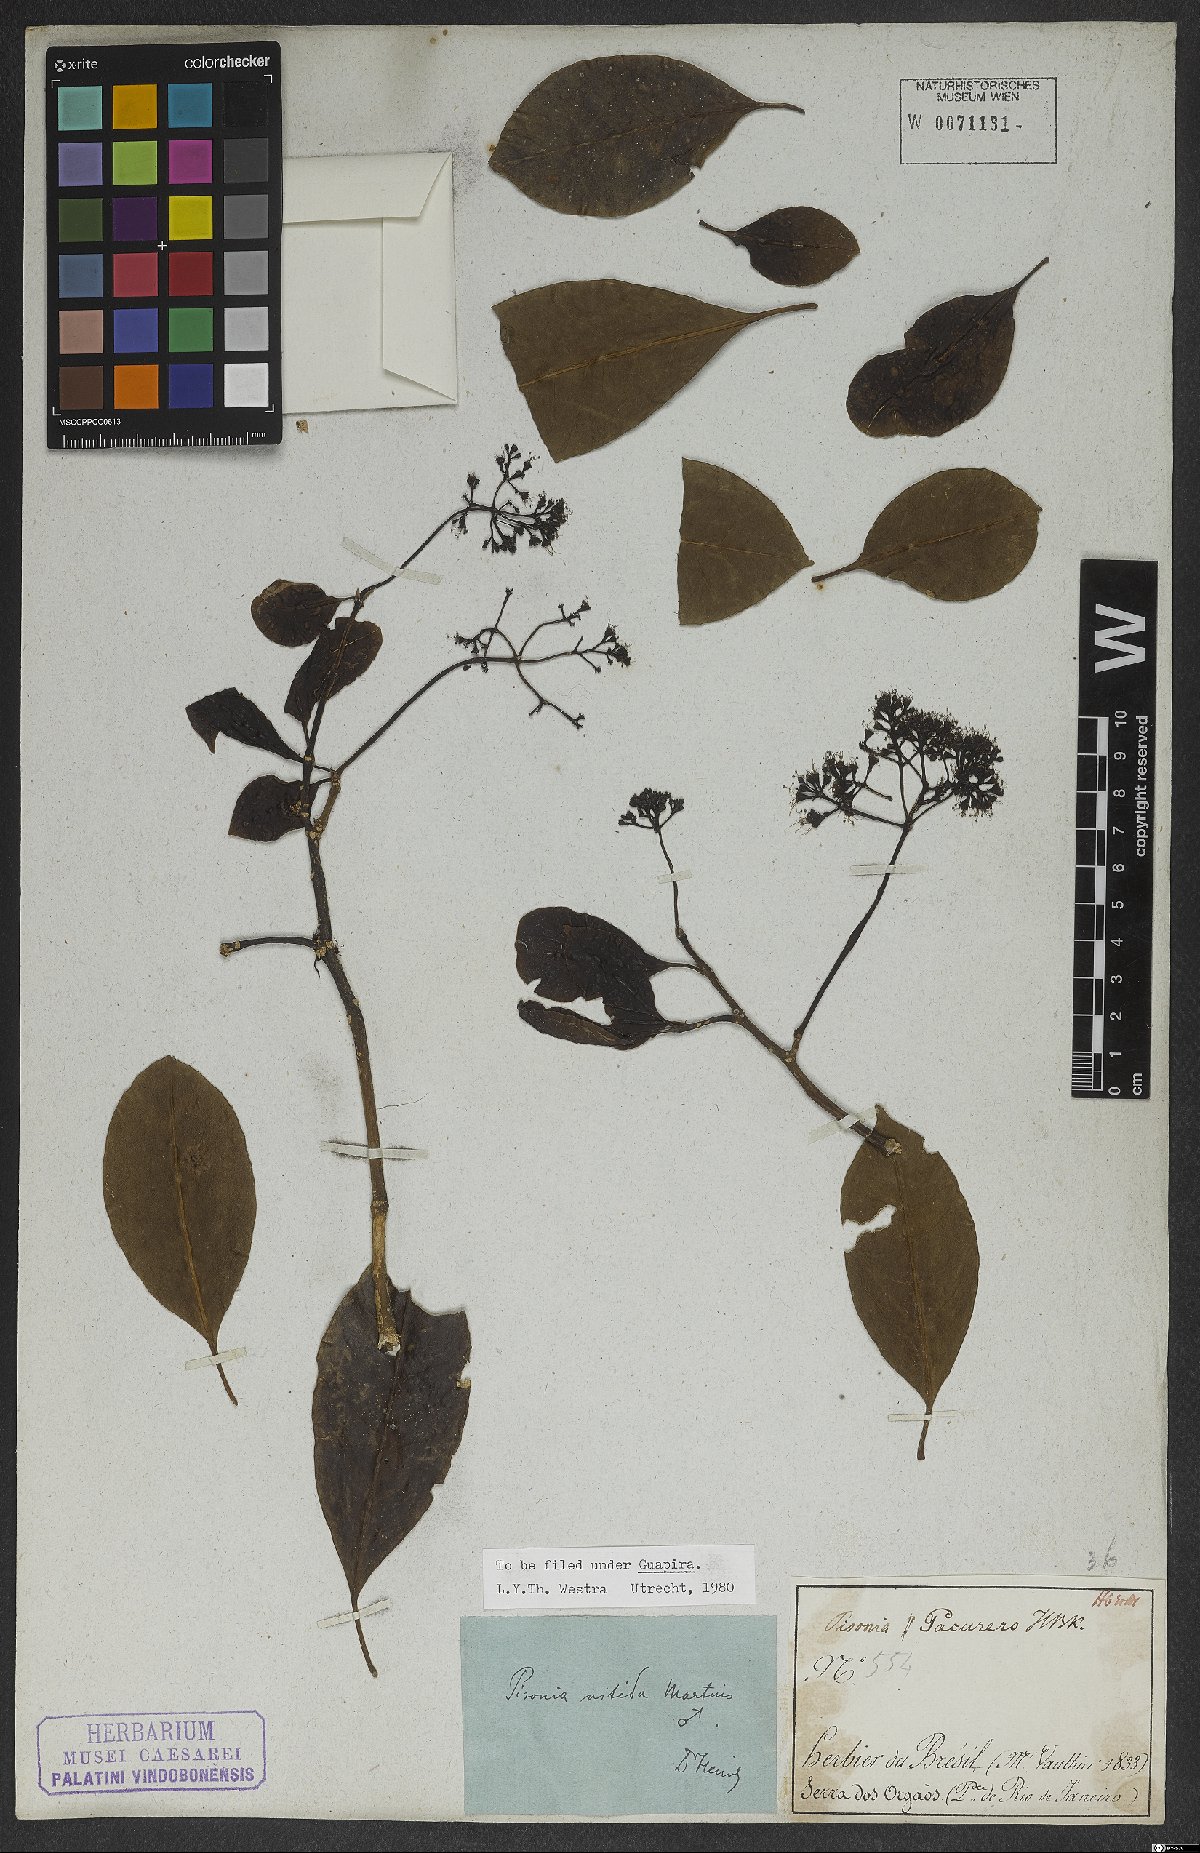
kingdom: Plantae
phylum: Tracheophyta
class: Magnoliopsida
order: Caryophyllales
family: Nyctaginaceae
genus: Guapira
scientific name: Guapira nitida
